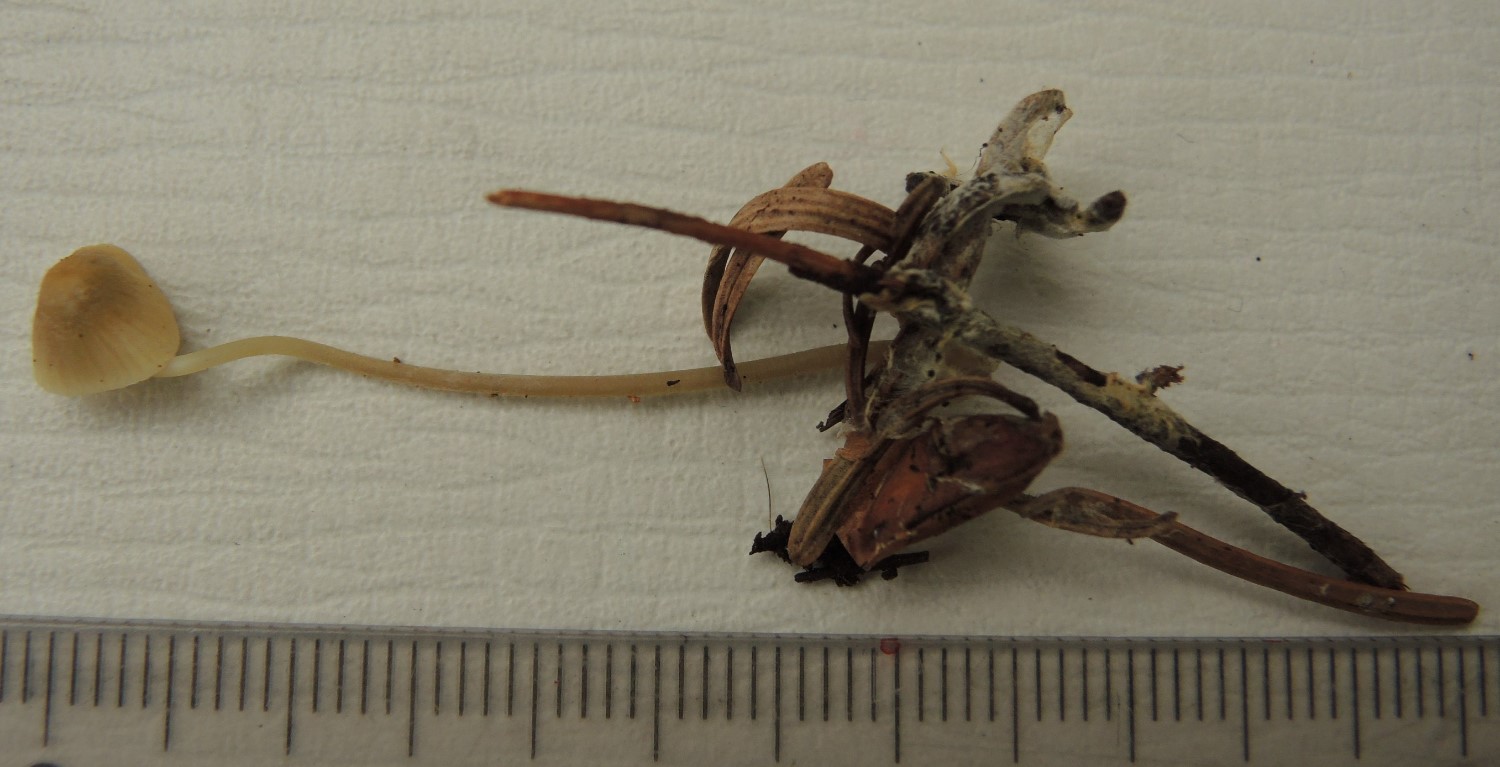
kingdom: Fungi
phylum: Basidiomycota
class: Agaricomycetes
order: Agaricales
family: Mycenaceae
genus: Mycena
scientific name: Mycena citrinomarginata
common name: gulægget huesvamp
